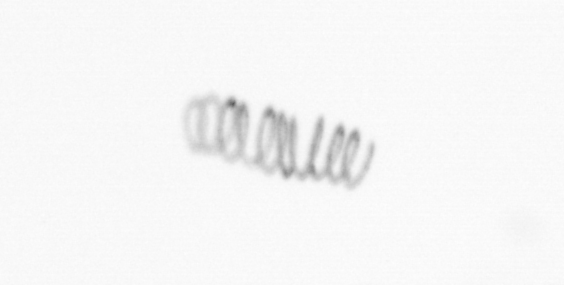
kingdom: Chromista
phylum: Ochrophyta
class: Bacillariophyceae
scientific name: Bacillariophyceae
